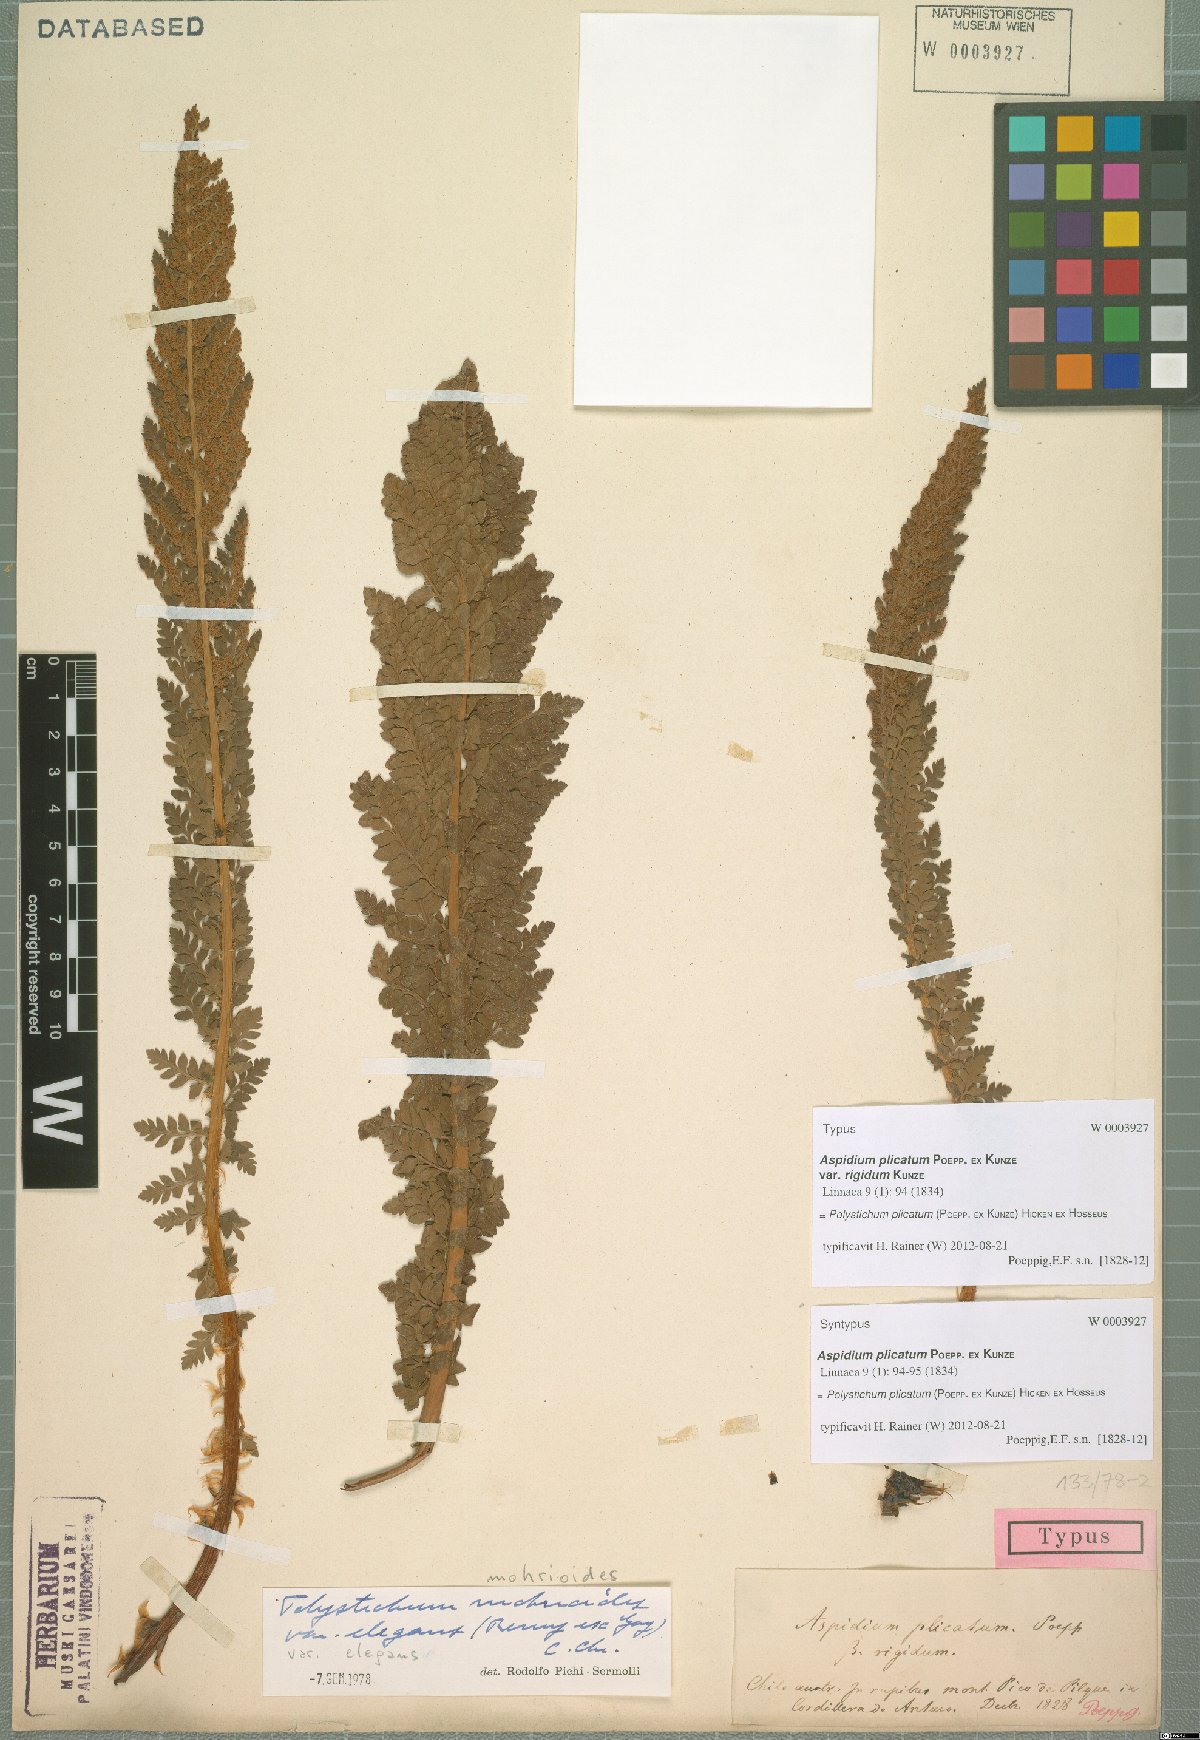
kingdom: Plantae
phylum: Tracheophyta
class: Polypodiopsida
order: Polypodiales
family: Dryopteridaceae
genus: Polystichum
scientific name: Polystichum plicatum
